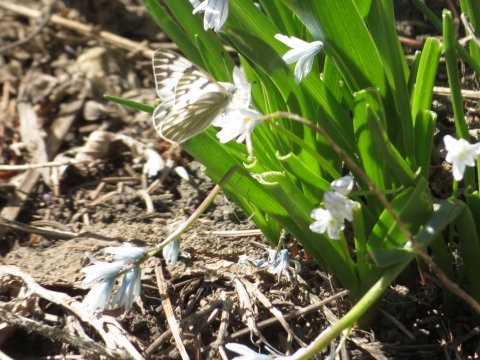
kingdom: Animalia
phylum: Arthropoda
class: Insecta
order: Lepidoptera
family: Pieridae
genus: Pontia
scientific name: Pontia occidentalis
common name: Western White
